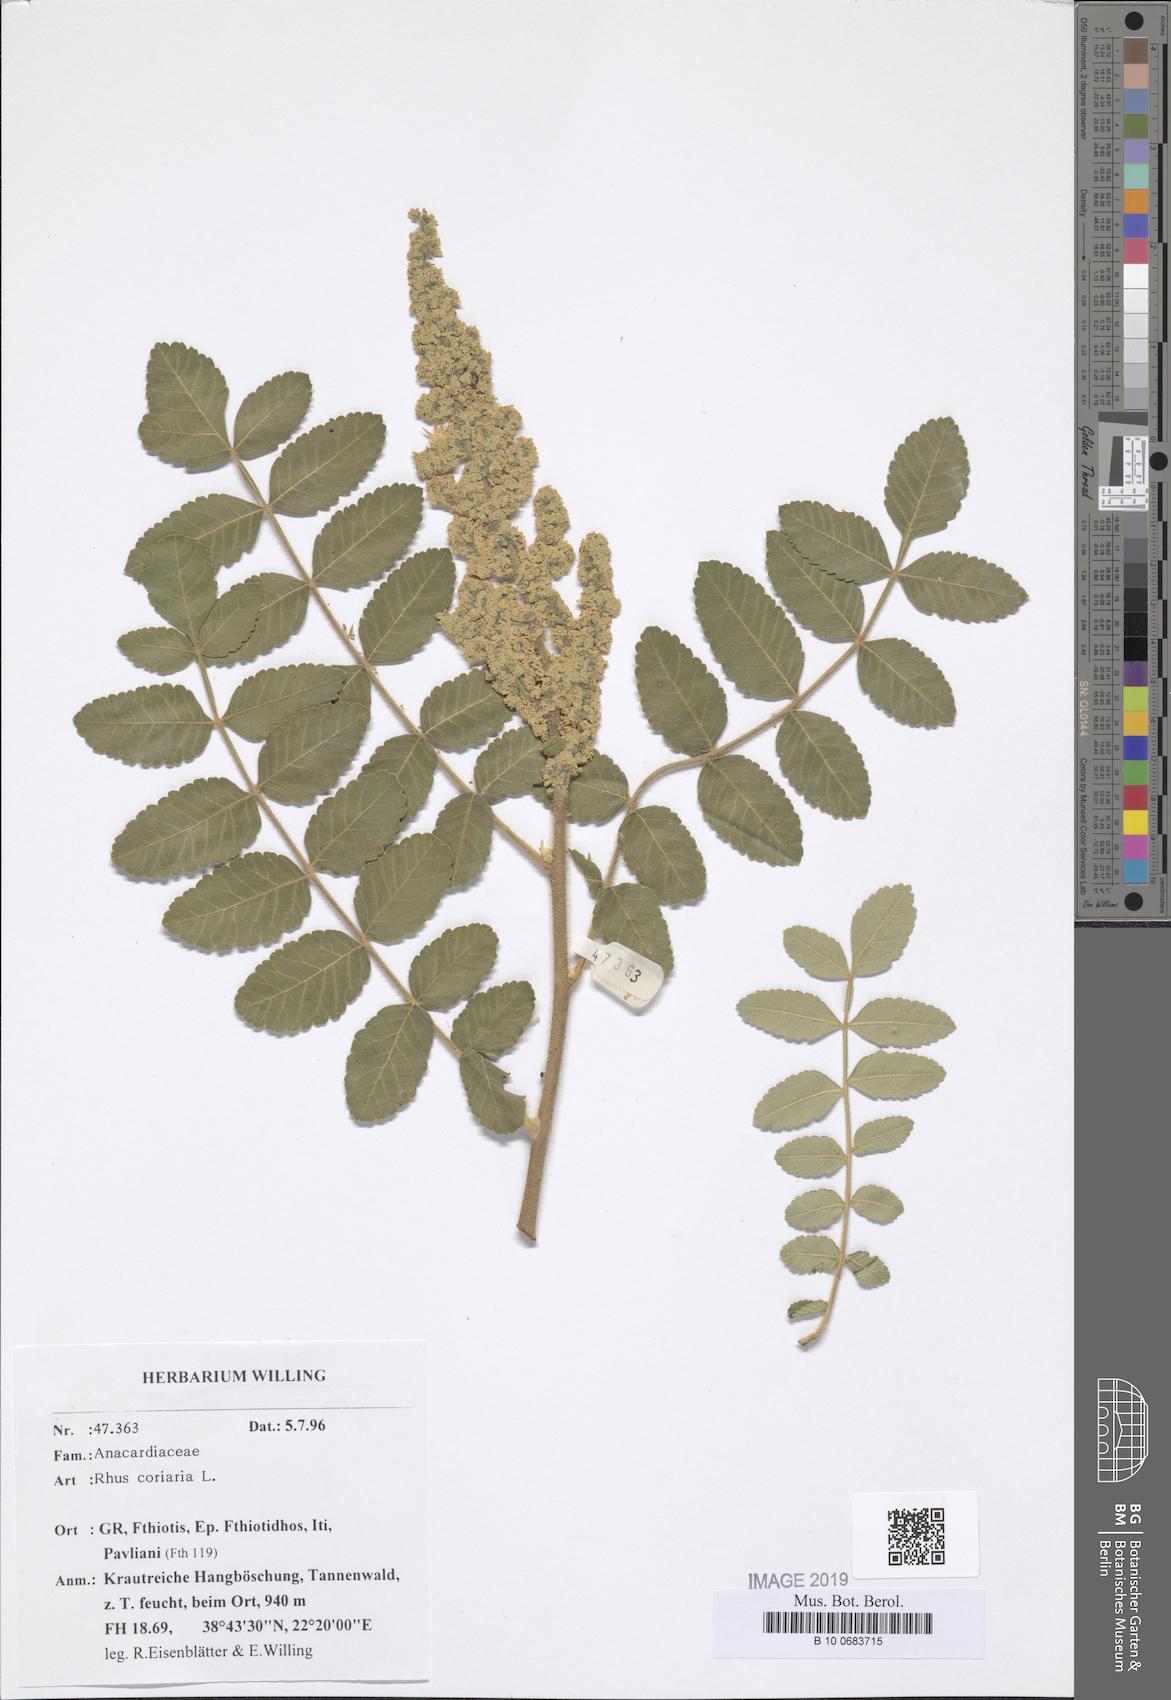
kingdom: Plantae
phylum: Tracheophyta
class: Magnoliopsida
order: Sapindales
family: Anacardiaceae
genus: Rhus
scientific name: Rhus coriaria
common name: Tanner's sumach
